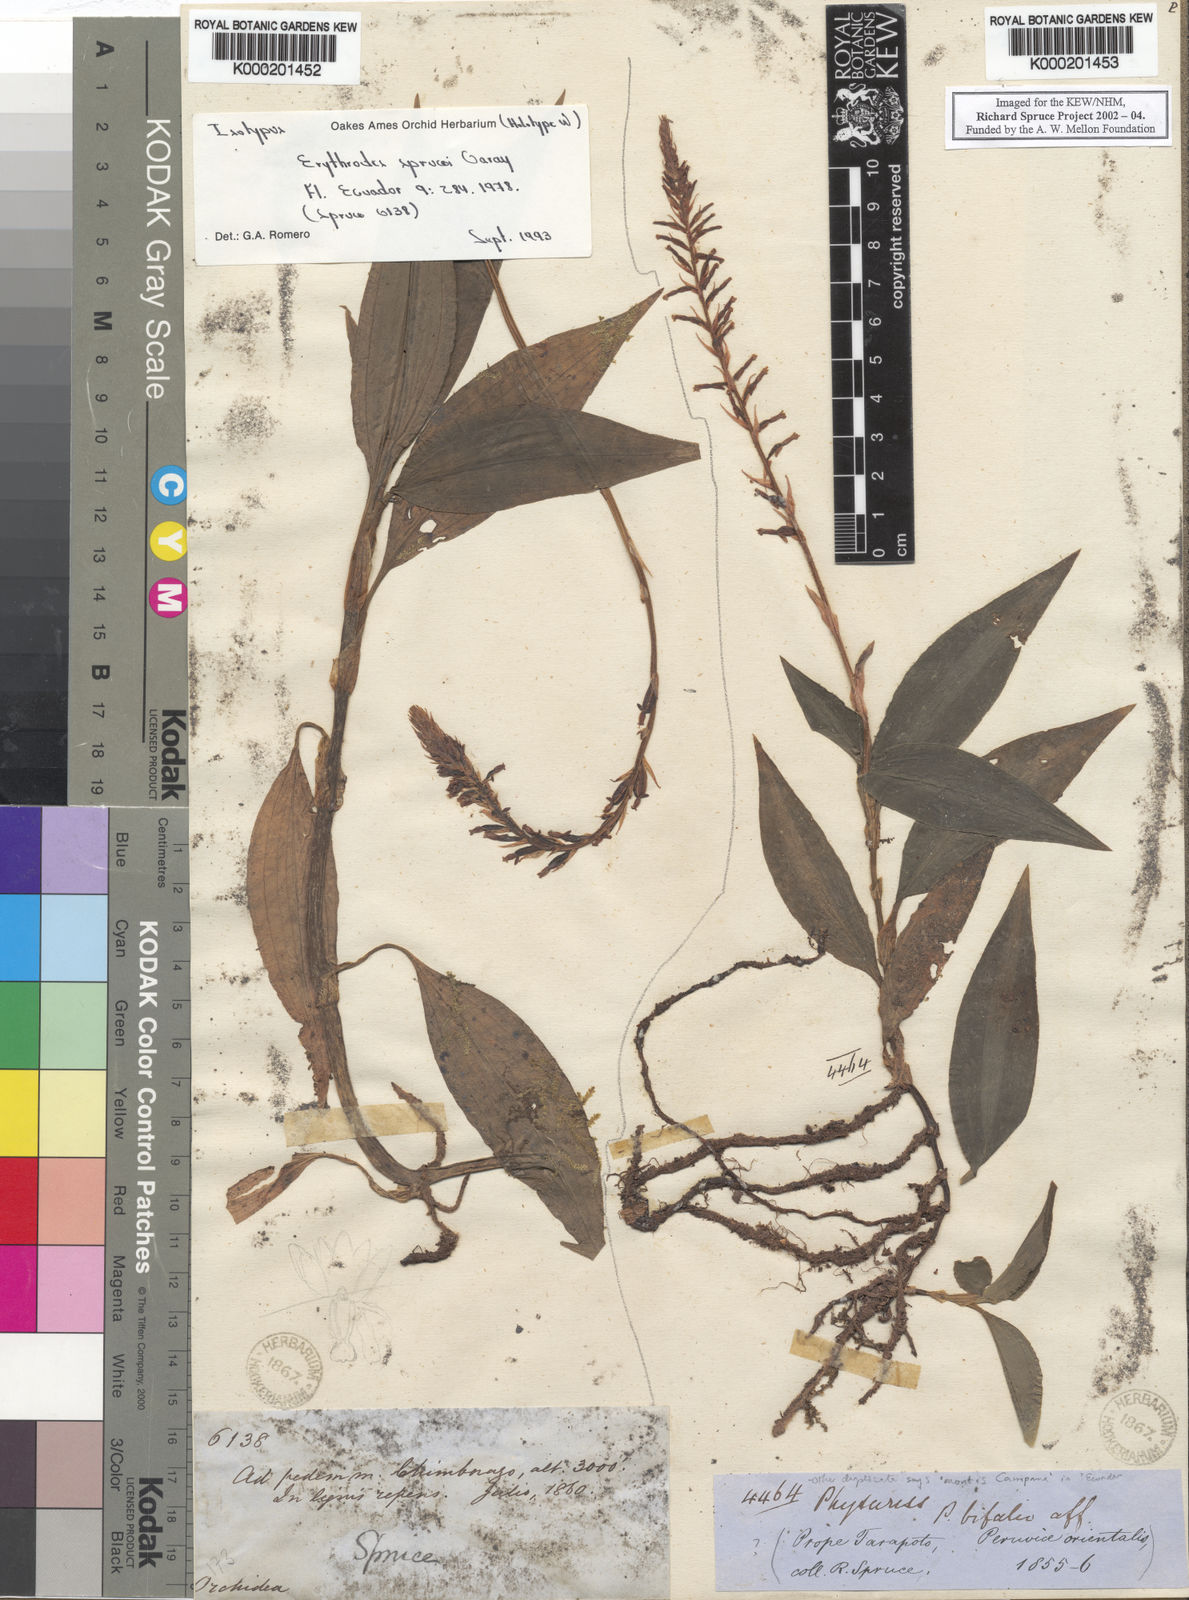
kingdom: Plantae
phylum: Tracheophyta
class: Liliopsida
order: Asparagales
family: Orchidaceae
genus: Microchilus
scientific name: Microchilus sprucei
